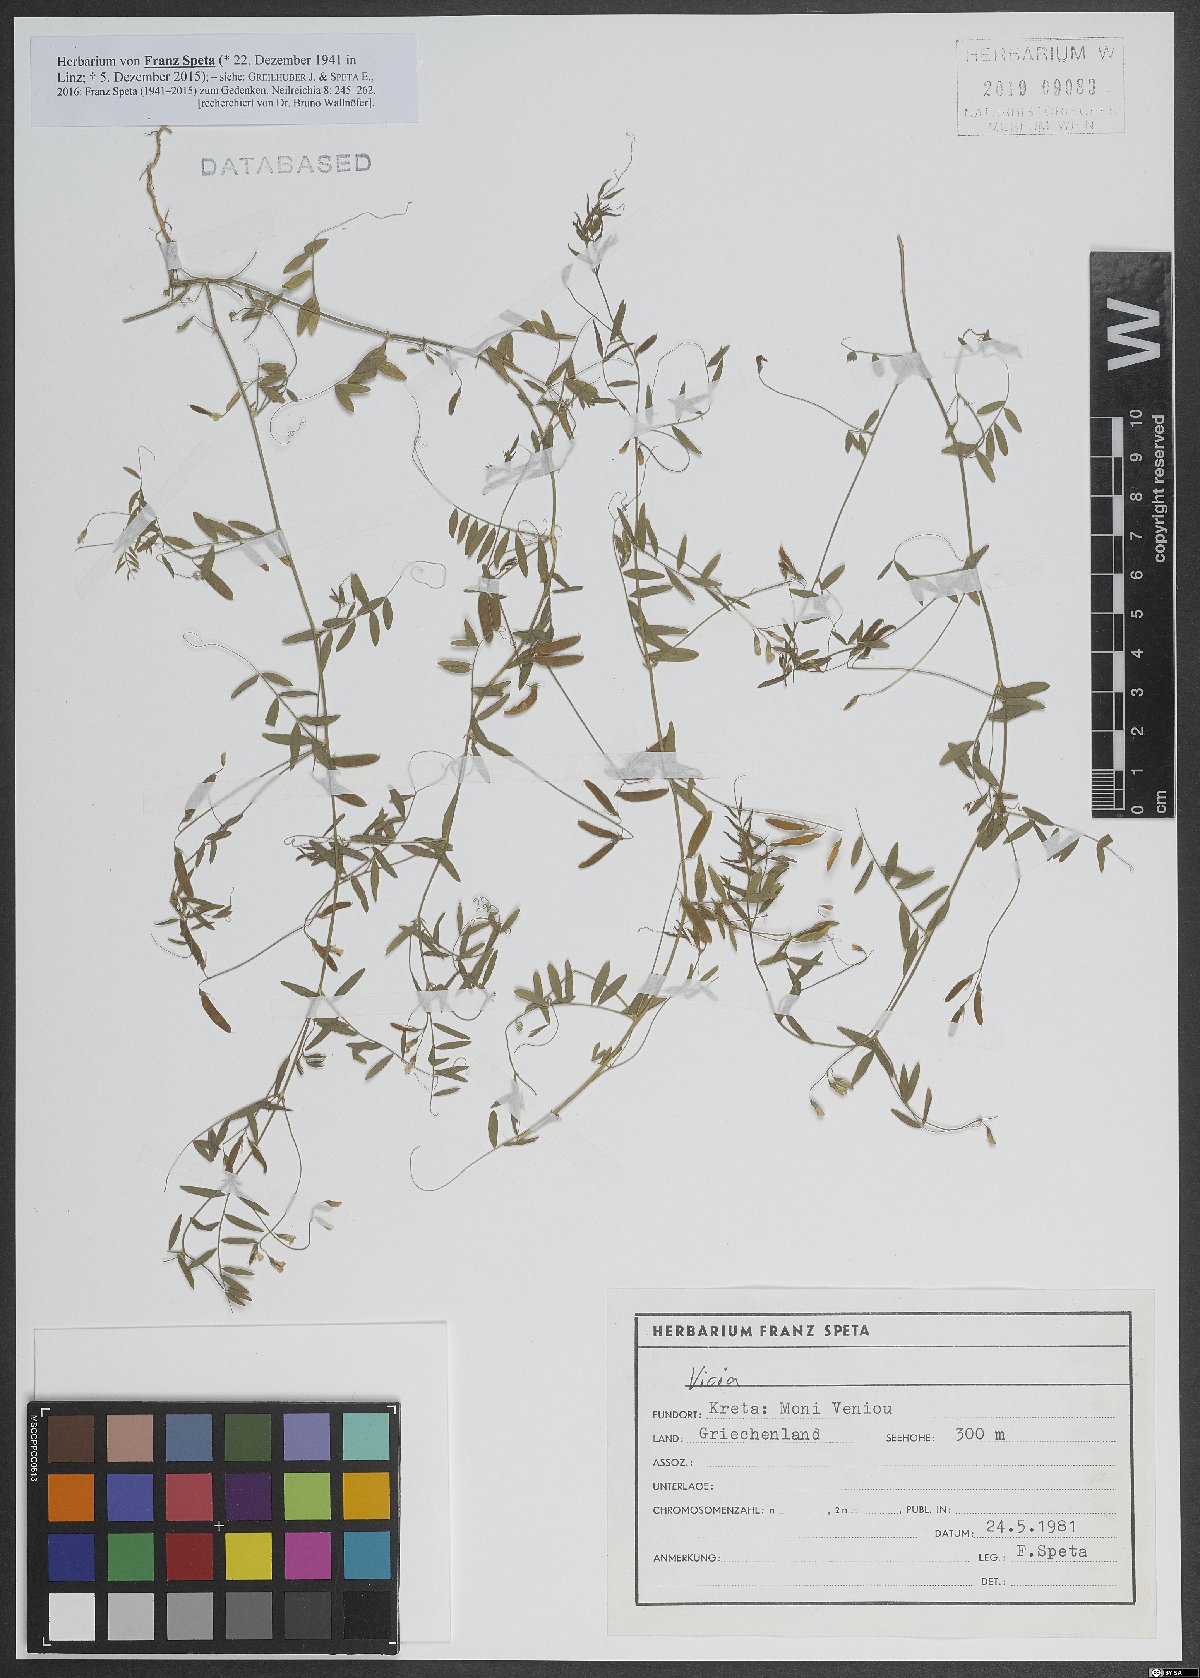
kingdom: Plantae
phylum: Tracheophyta
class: Magnoliopsida
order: Fabales
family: Fabaceae
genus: Vicia
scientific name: Vicia
